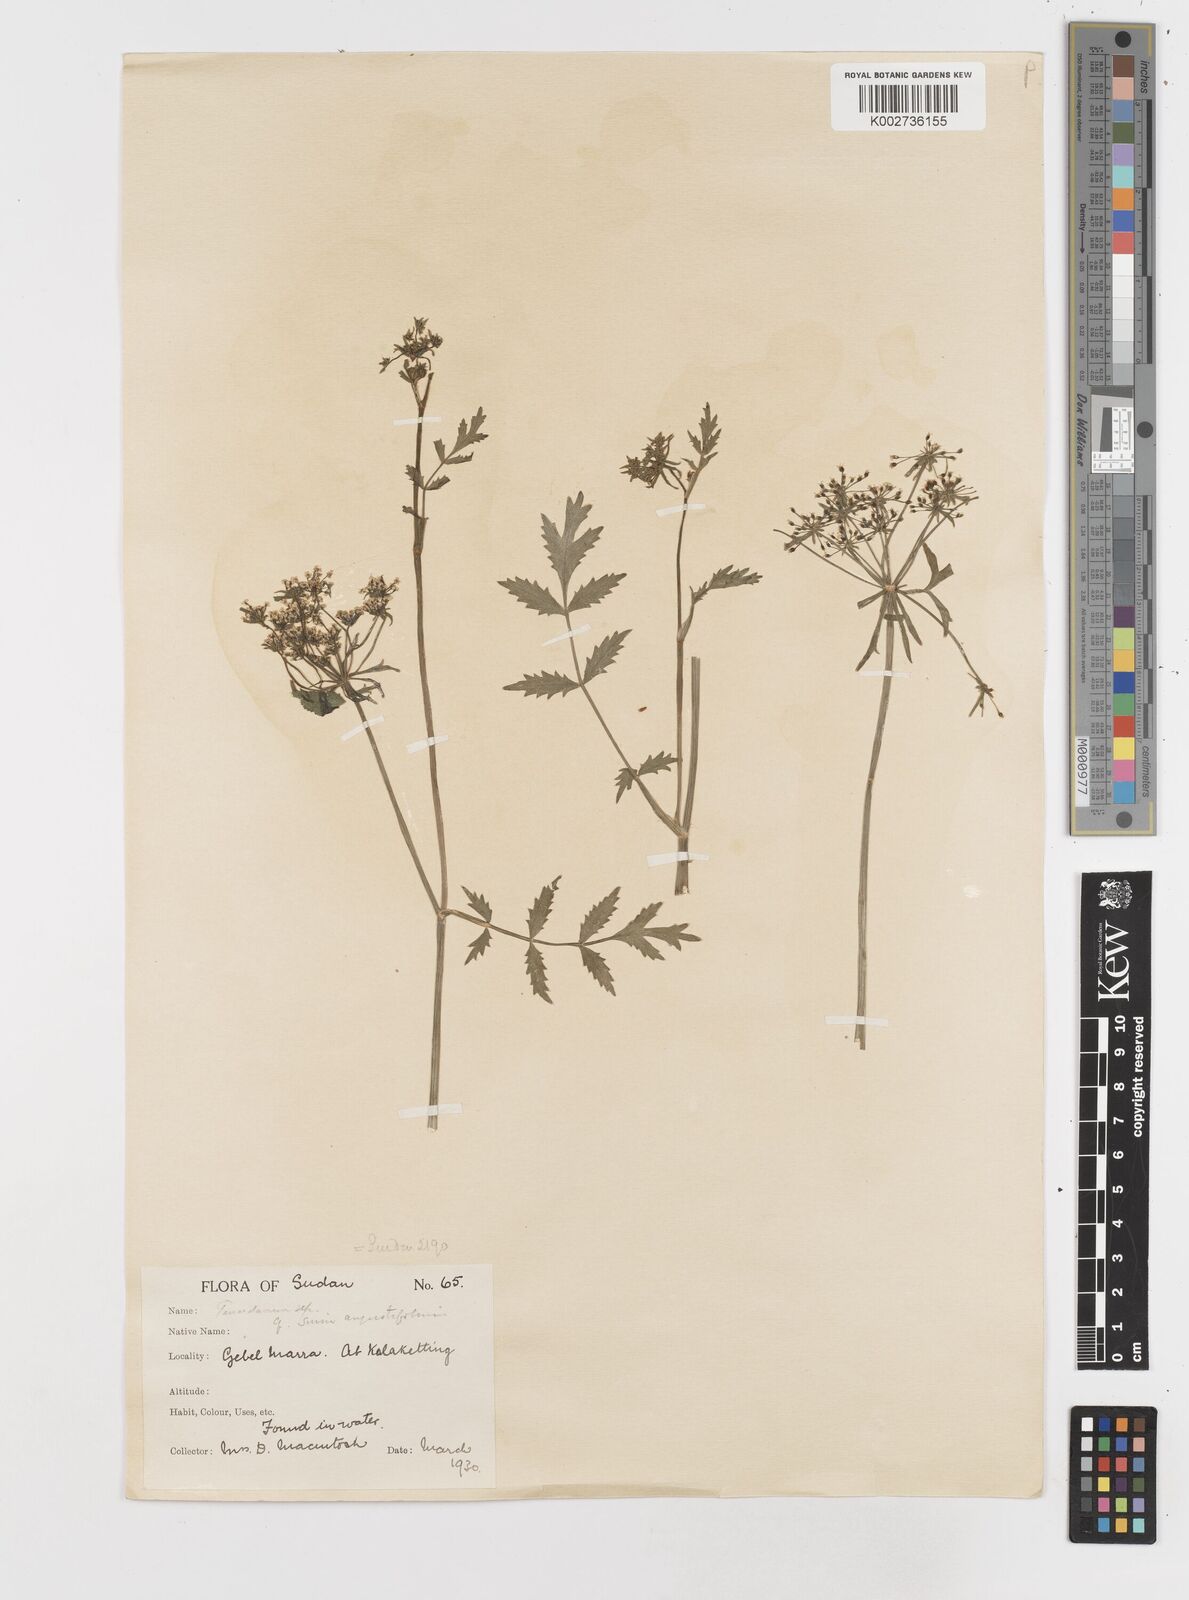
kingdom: Plantae
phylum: Tracheophyta
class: Magnoliopsida
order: Apiales
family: Apiaceae
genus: Berula
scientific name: Berula erecta
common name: Lesser water-parsnip
